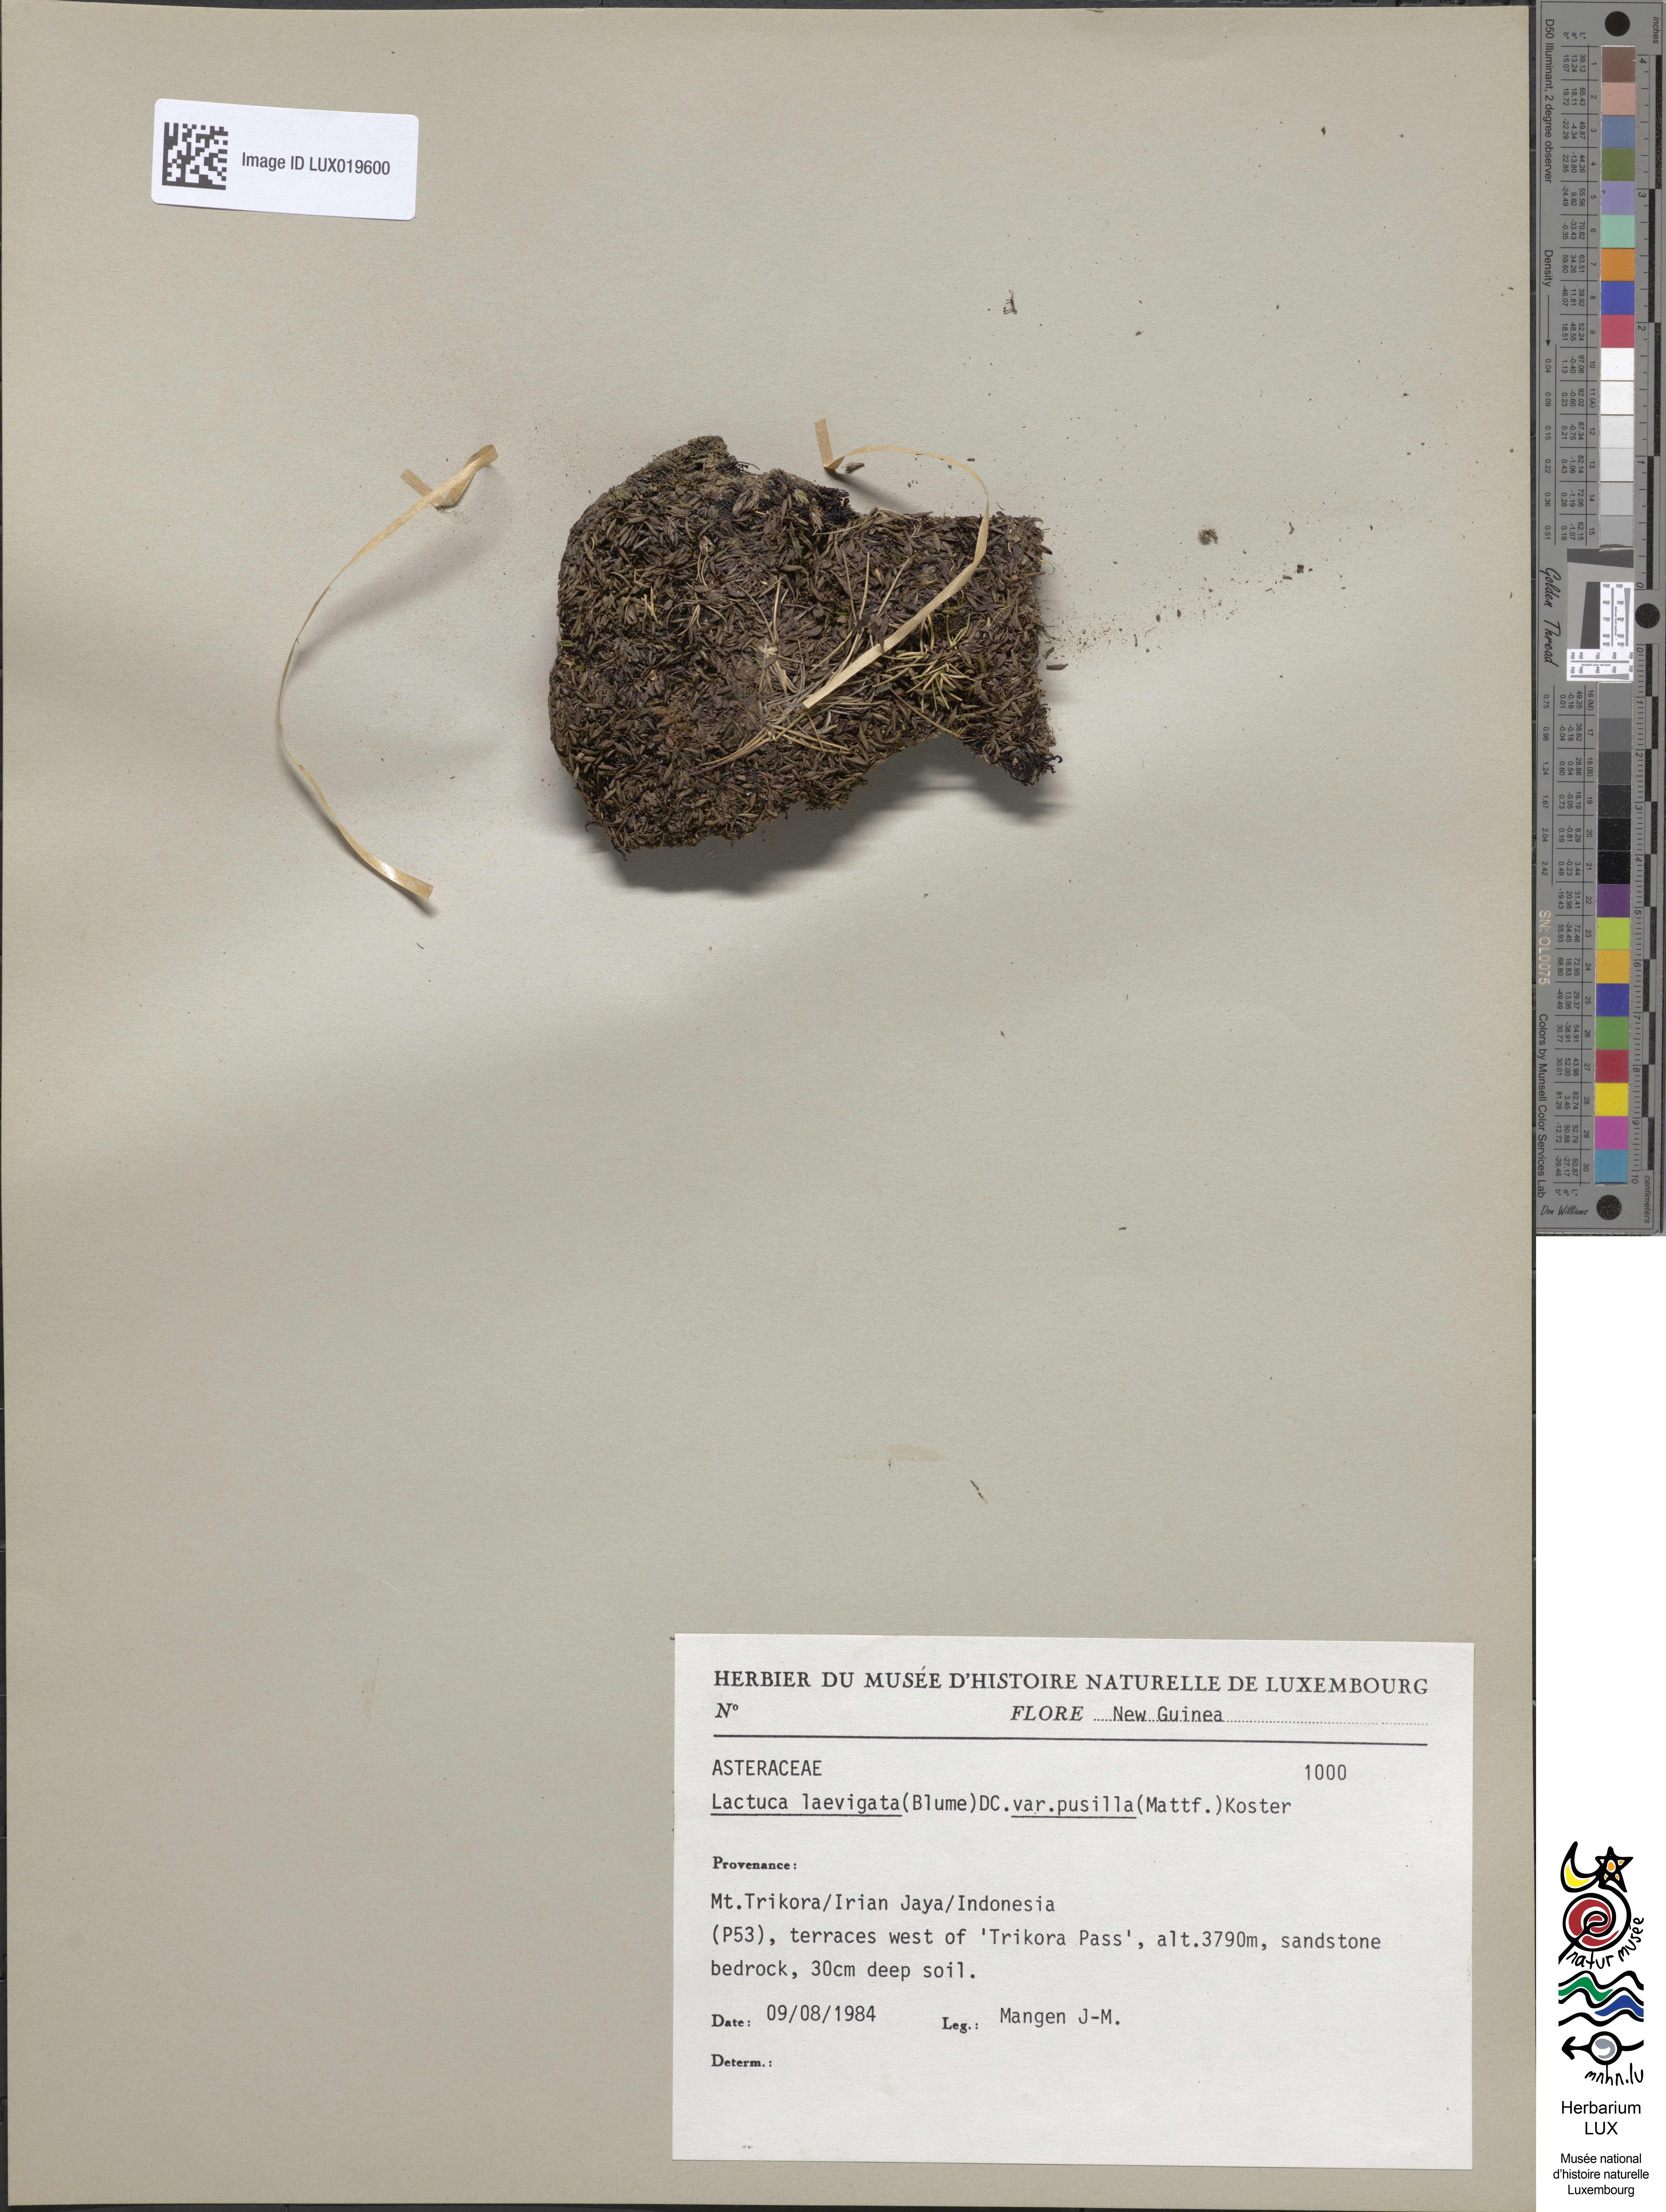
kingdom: Plantae
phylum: Tracheophyta
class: Magnoliopsida
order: Asterales
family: Asteraceae
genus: Ixeridium
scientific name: Ixeridium pusillum
